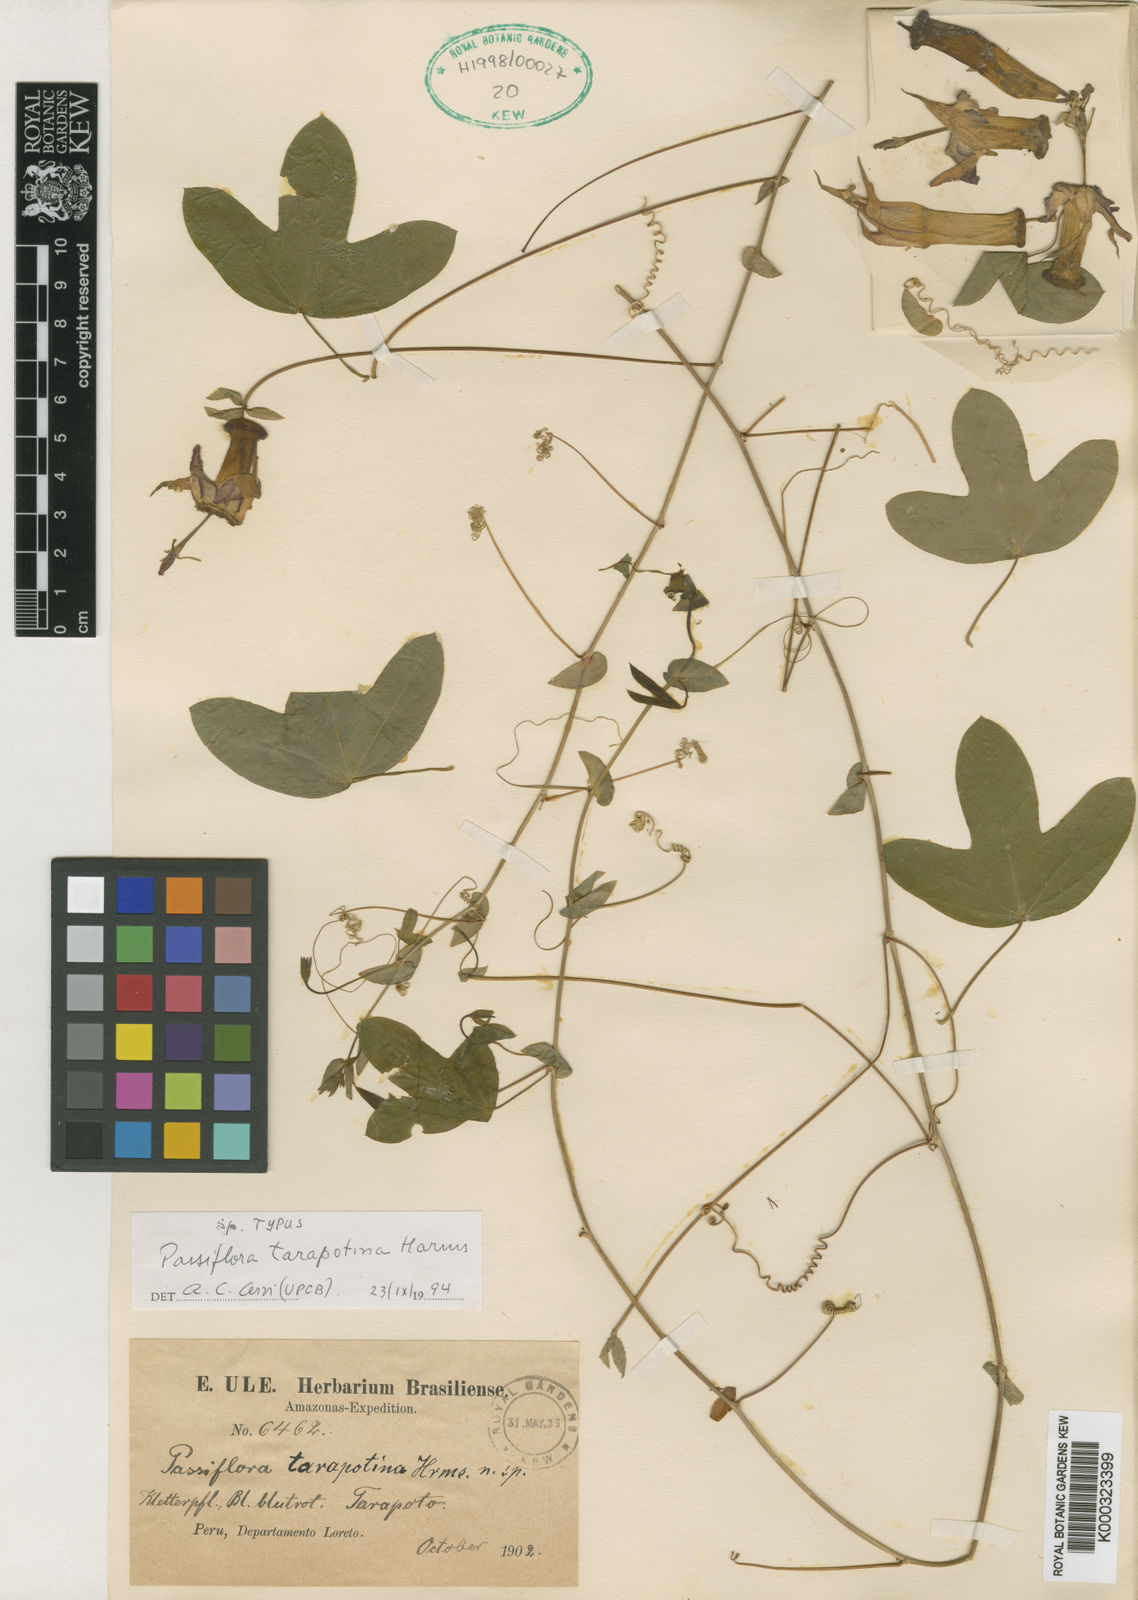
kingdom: Plantae
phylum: Tracheophyta
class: Magnoliopsida
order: Malpighiales
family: Passifloraceae
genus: Passiflora
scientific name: Passiflora tarapotina
